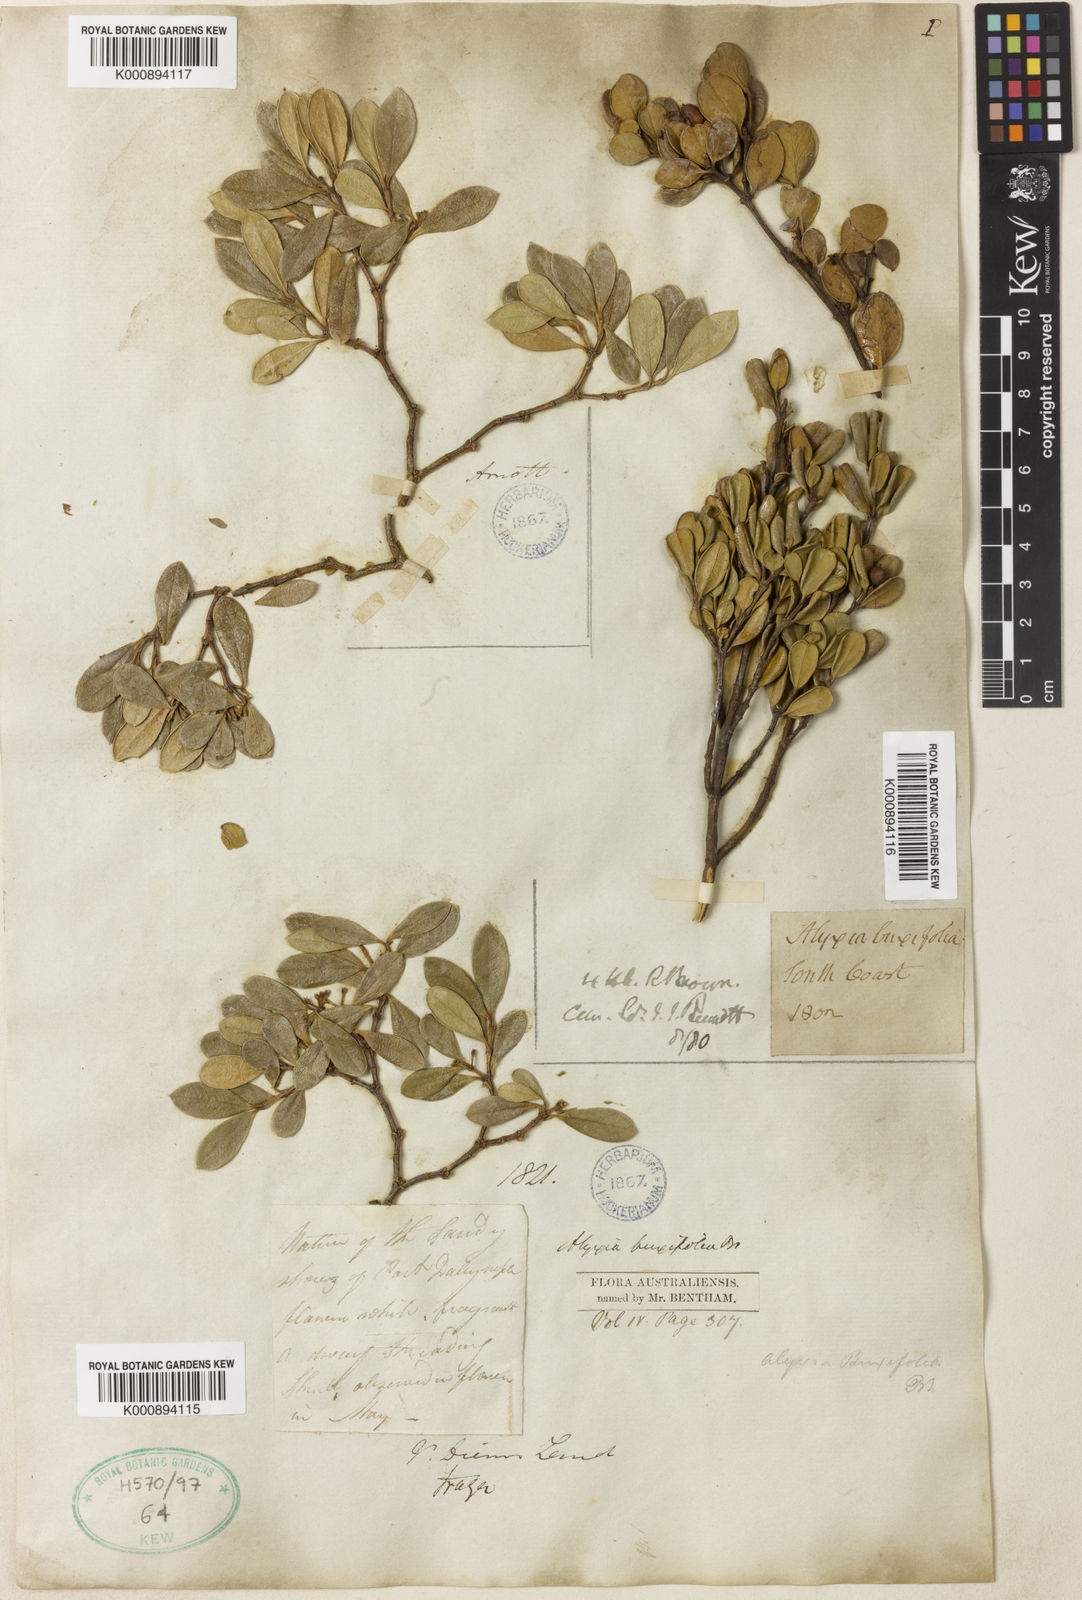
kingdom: Plantae
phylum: Tracheophyta
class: Magnoliopsida
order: Gentianales
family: Apocynaceae
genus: Alyxia
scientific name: Alyxia buxifolia
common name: Dysentery-bush
